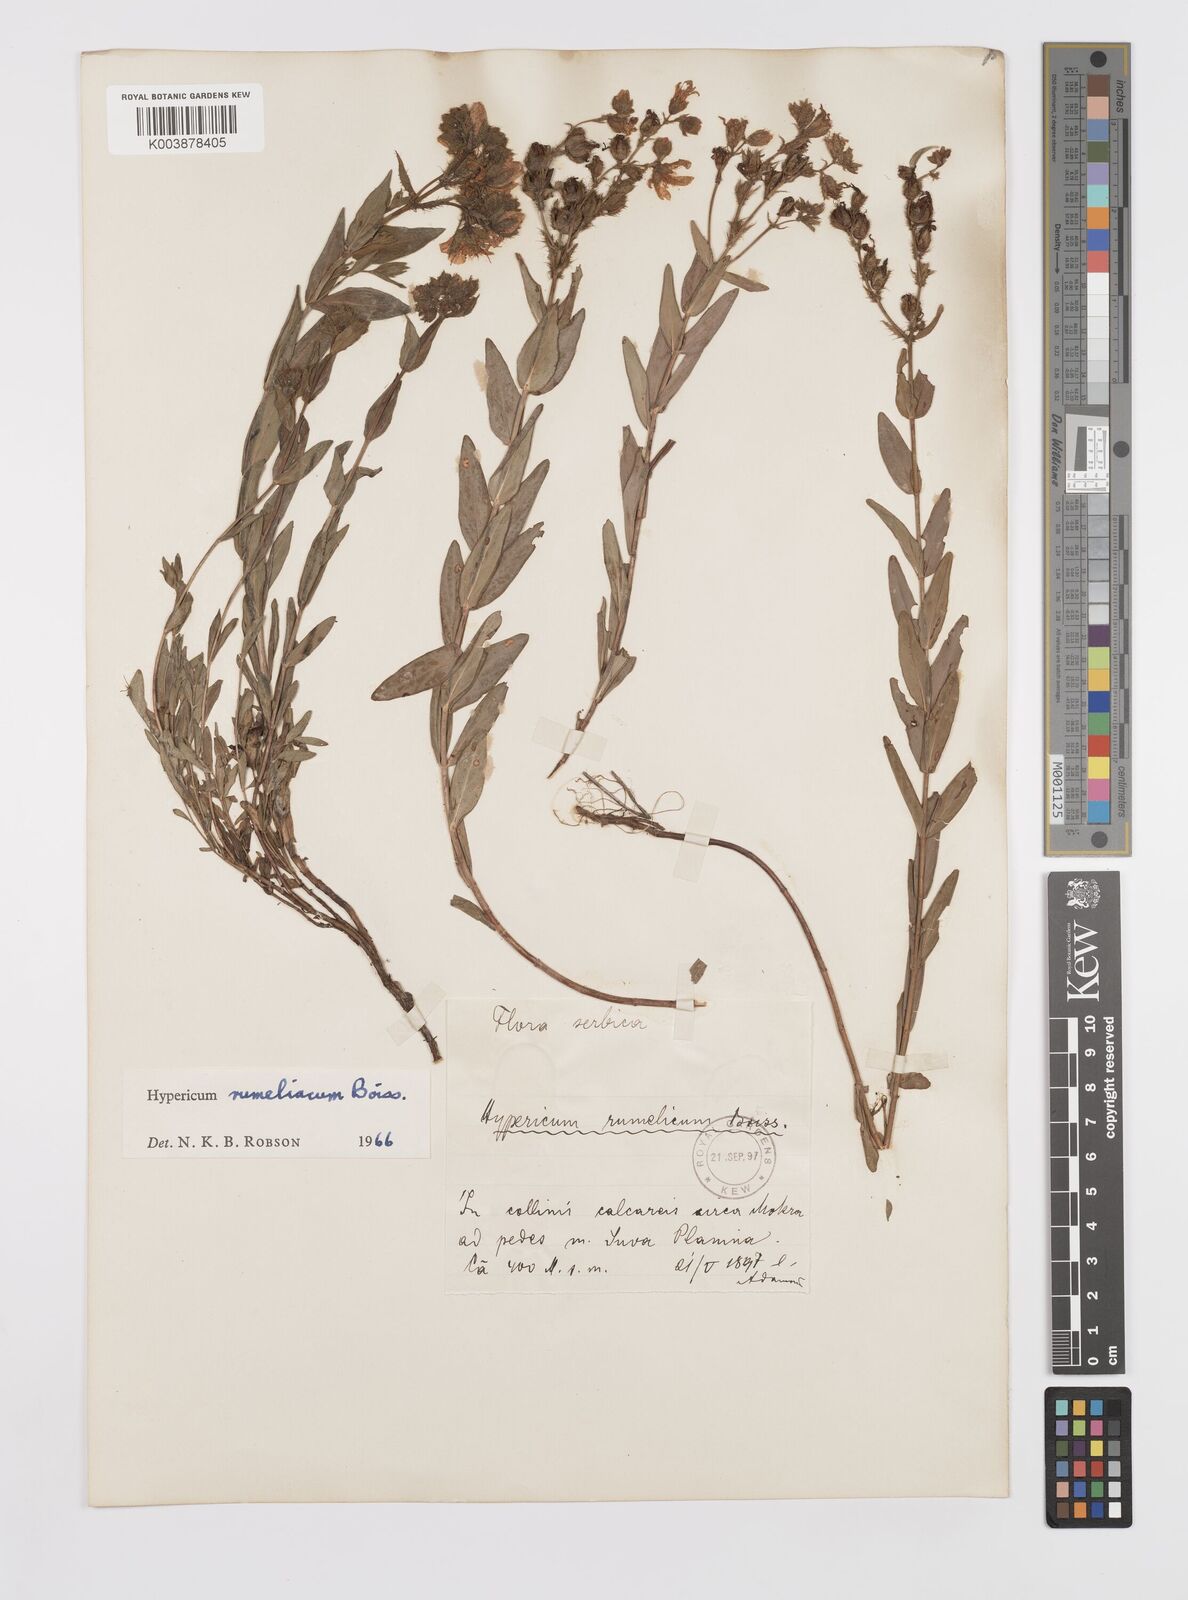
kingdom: Plantae
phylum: Tracheophyta
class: Magnoliopsida
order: Malpighiales
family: Hypericaceae
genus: Hypericum
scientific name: Hypericum rumeliacum
